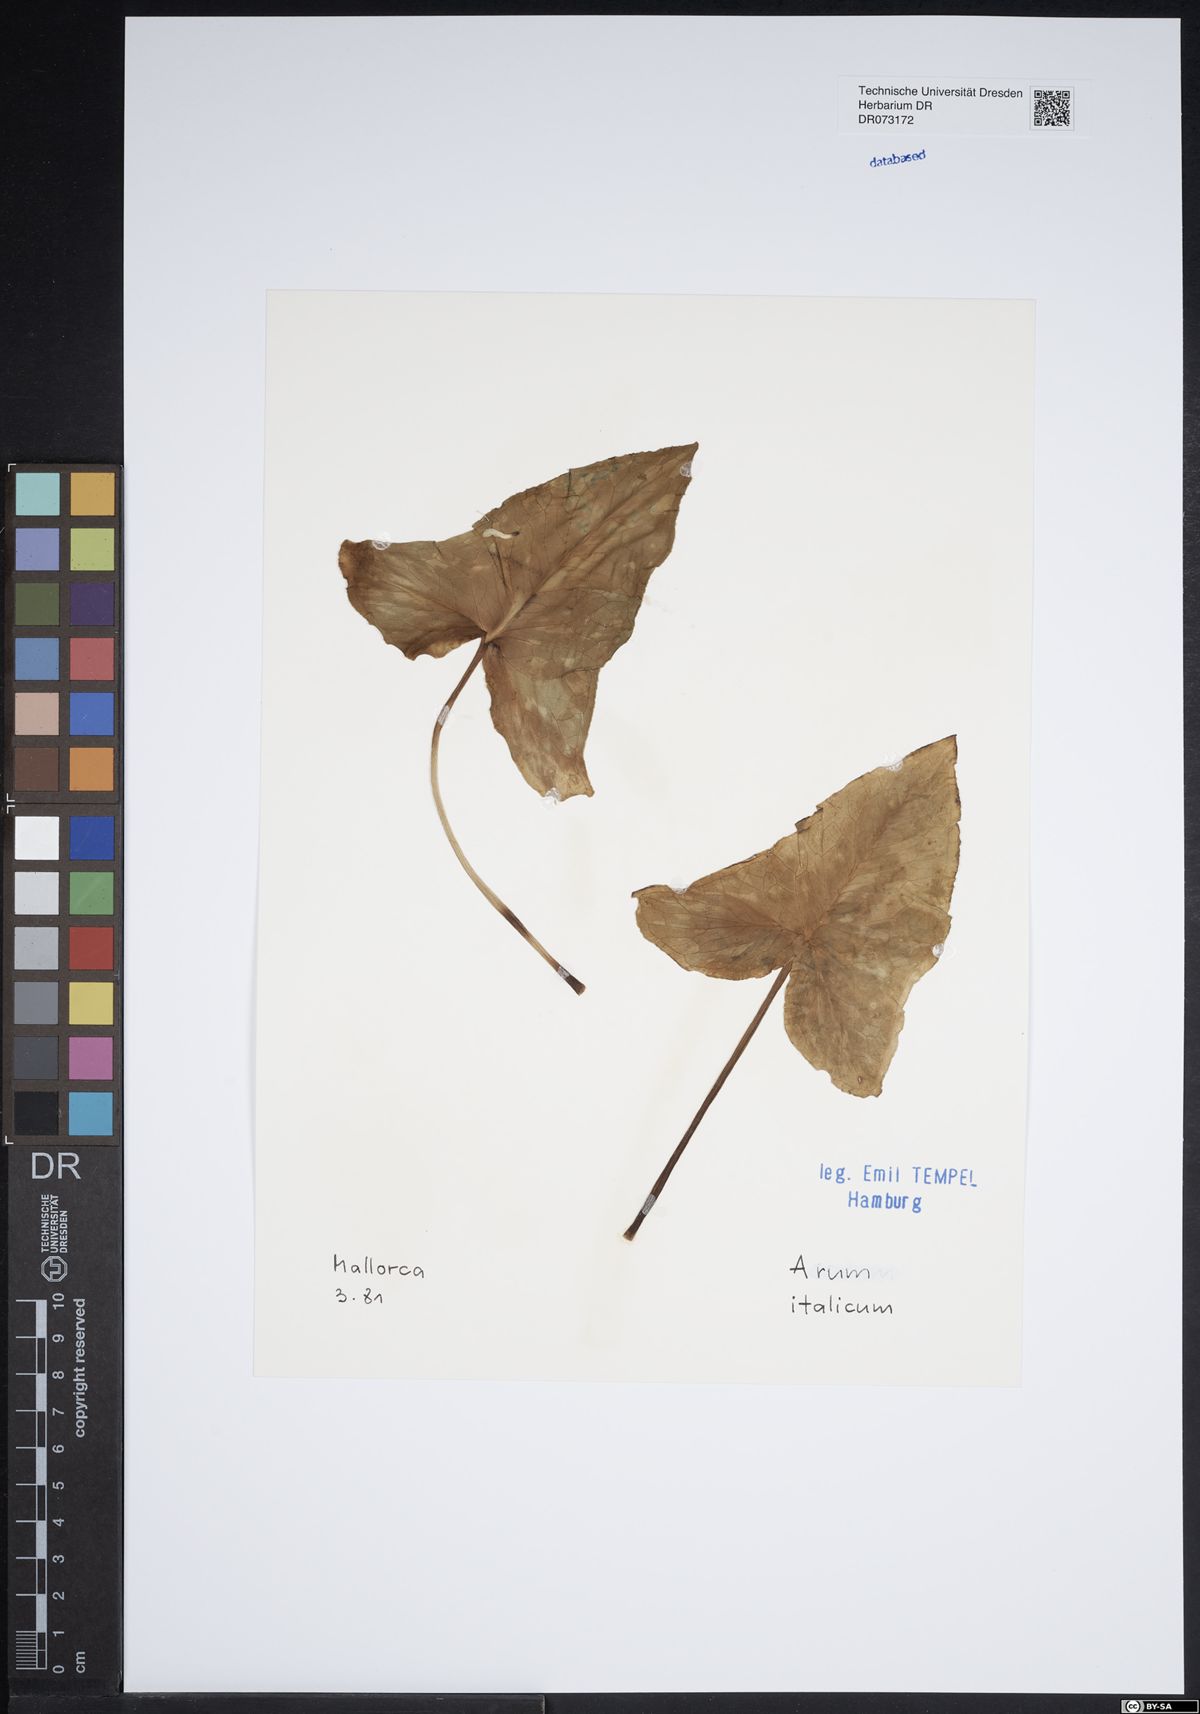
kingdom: Plantae
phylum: Tracheophyta
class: Liliopsida
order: Alismatales
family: Araceae
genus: Arum
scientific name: Arum italicum
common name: Italian lords-and-ladies
